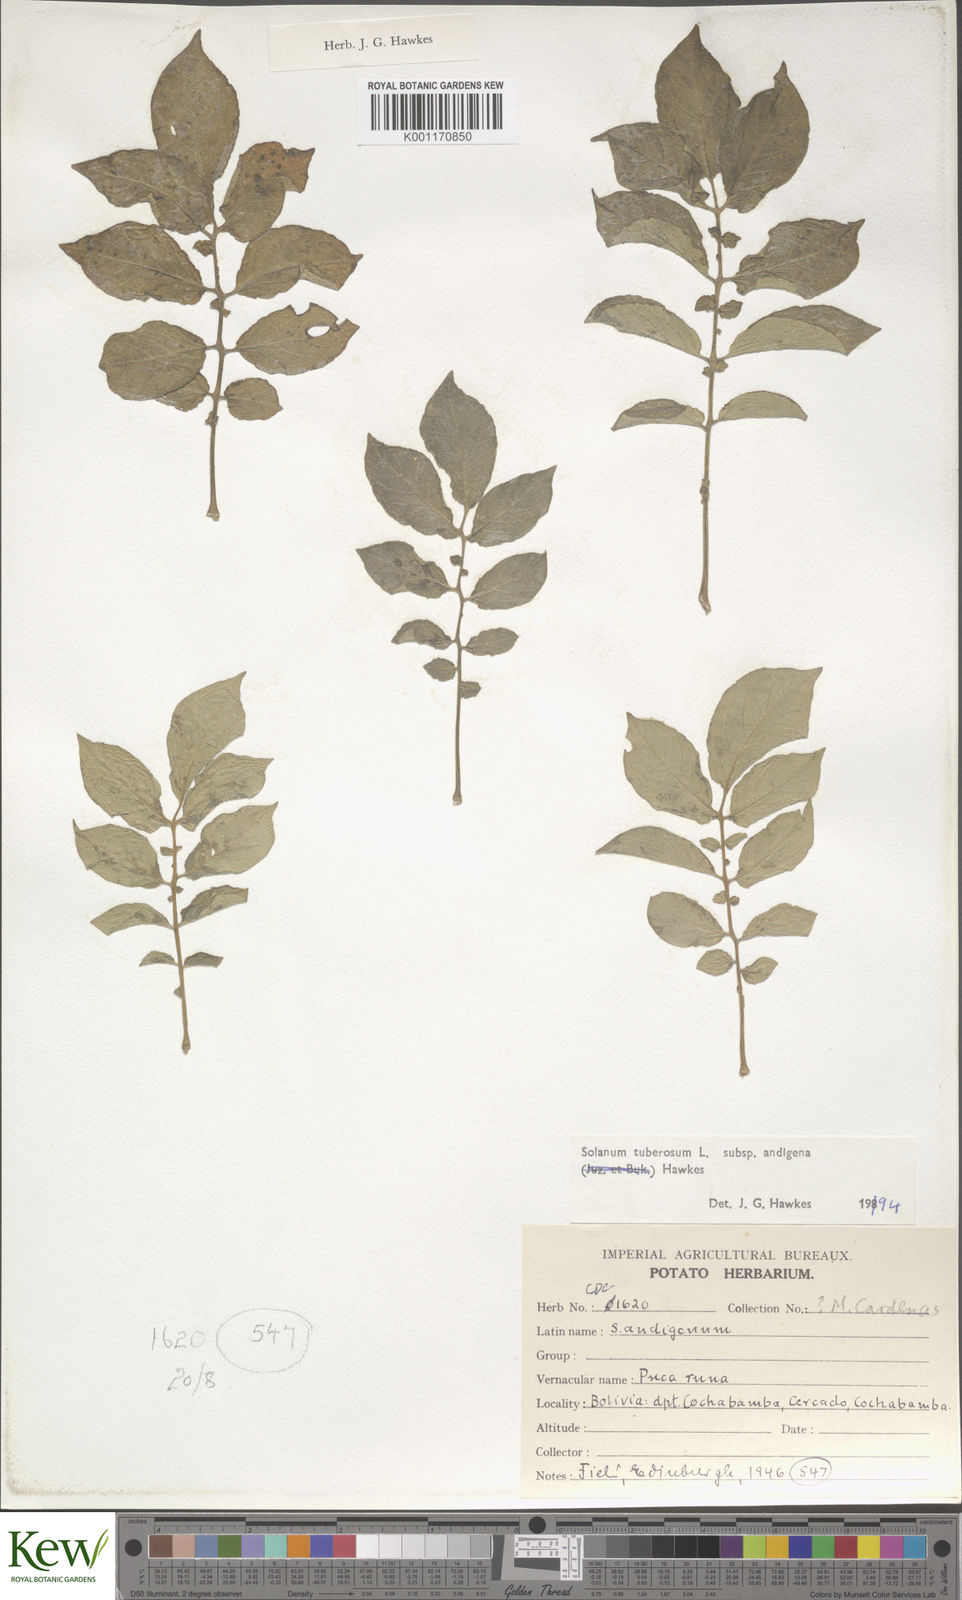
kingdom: Plantae
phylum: Tracheophyta
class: Magnoliopsida
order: Solanales
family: Solanaceae
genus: Solanum
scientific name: Solanum tuberosum
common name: Potato
